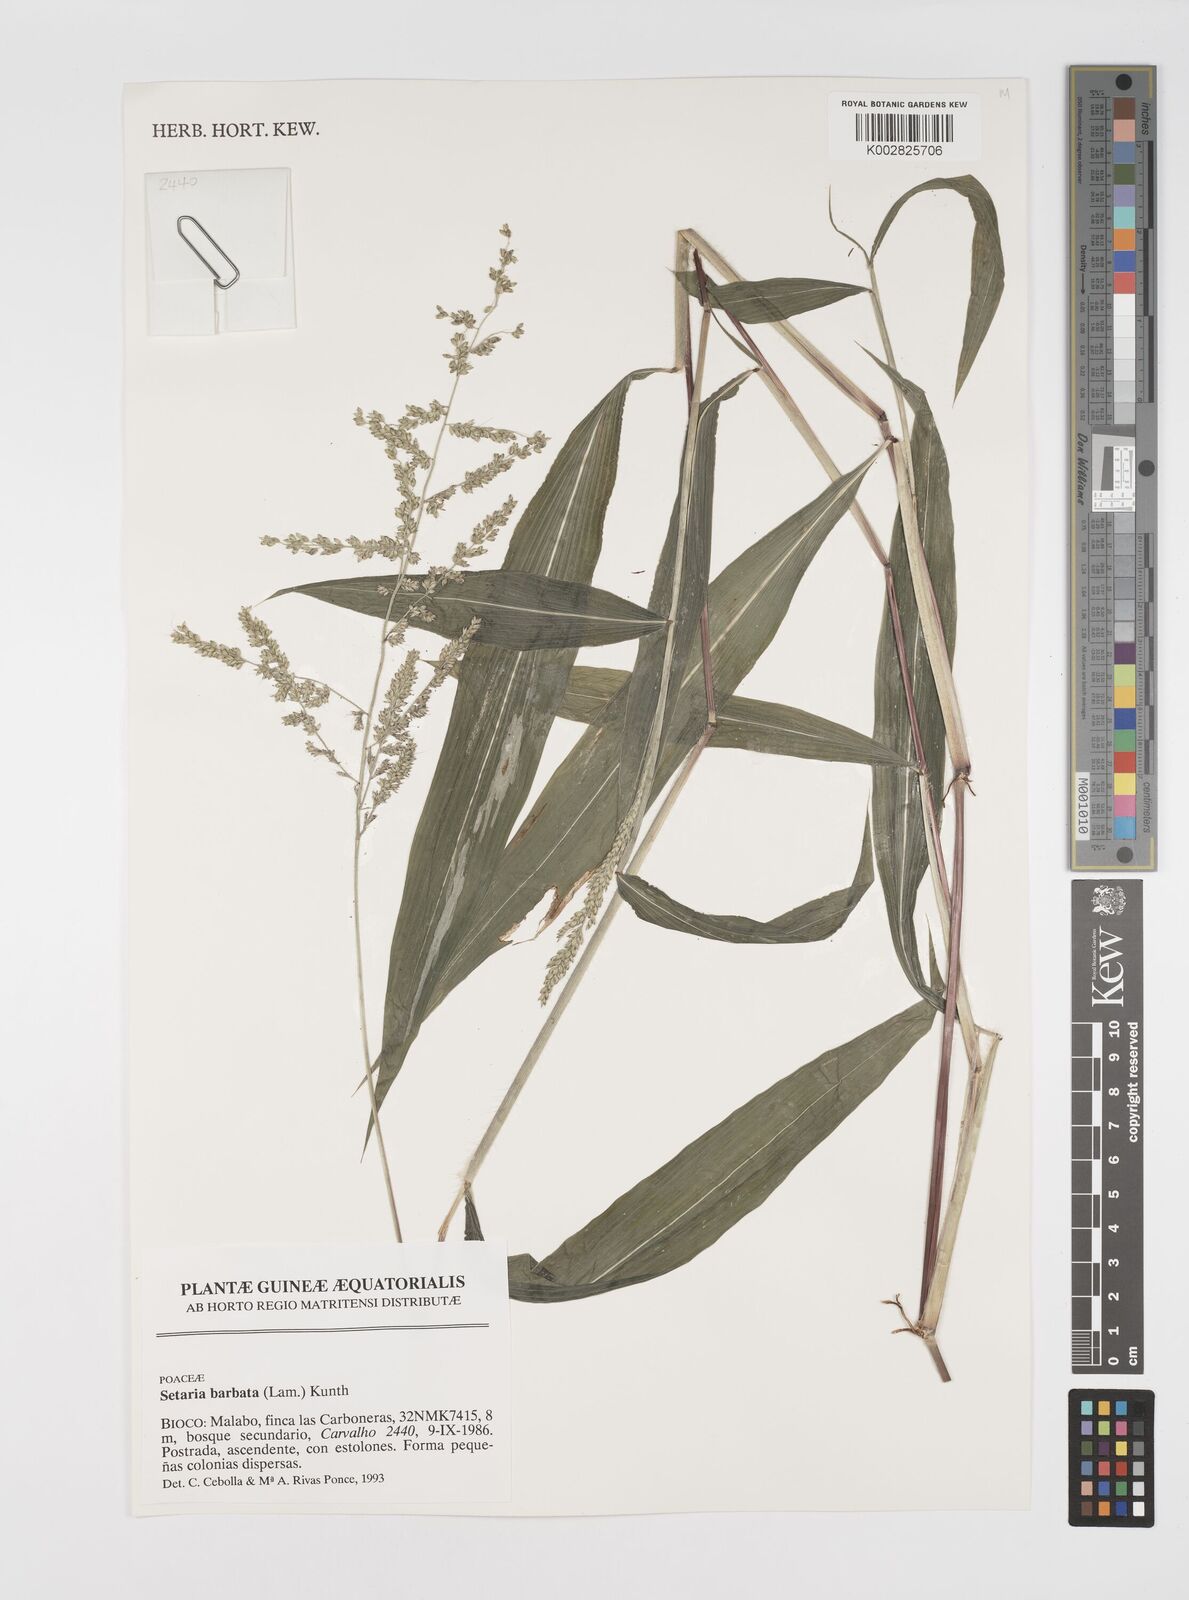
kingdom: Plantae
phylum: Tracheophyta
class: Liliopsida
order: Poales
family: Poaceae
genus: Setaria
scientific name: Setaria barbata
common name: East indian bristlegrass
